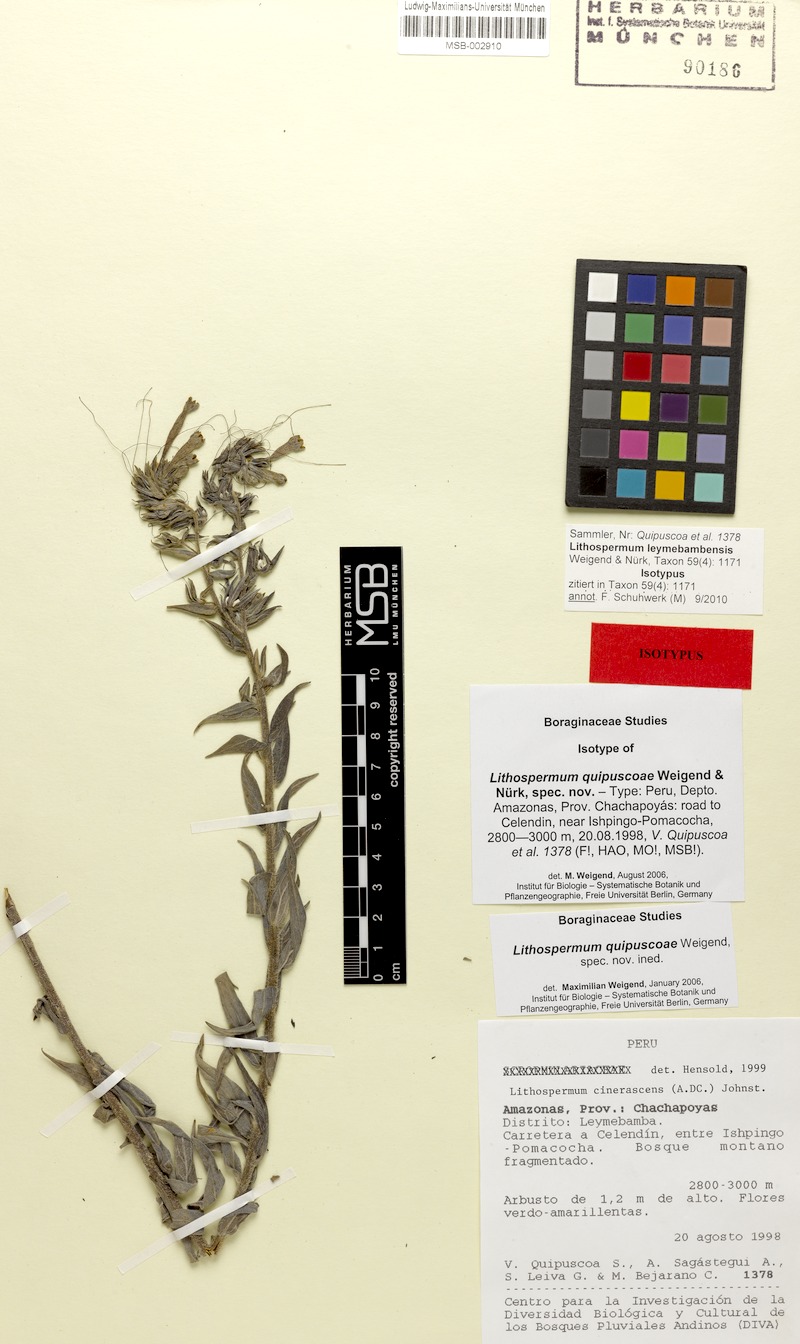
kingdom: Plantae
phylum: Tracheophyta
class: Magnoliopsida
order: Boraginales
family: Boraginaceae
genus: Lithospermum
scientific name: Lithospermum leymebambense
